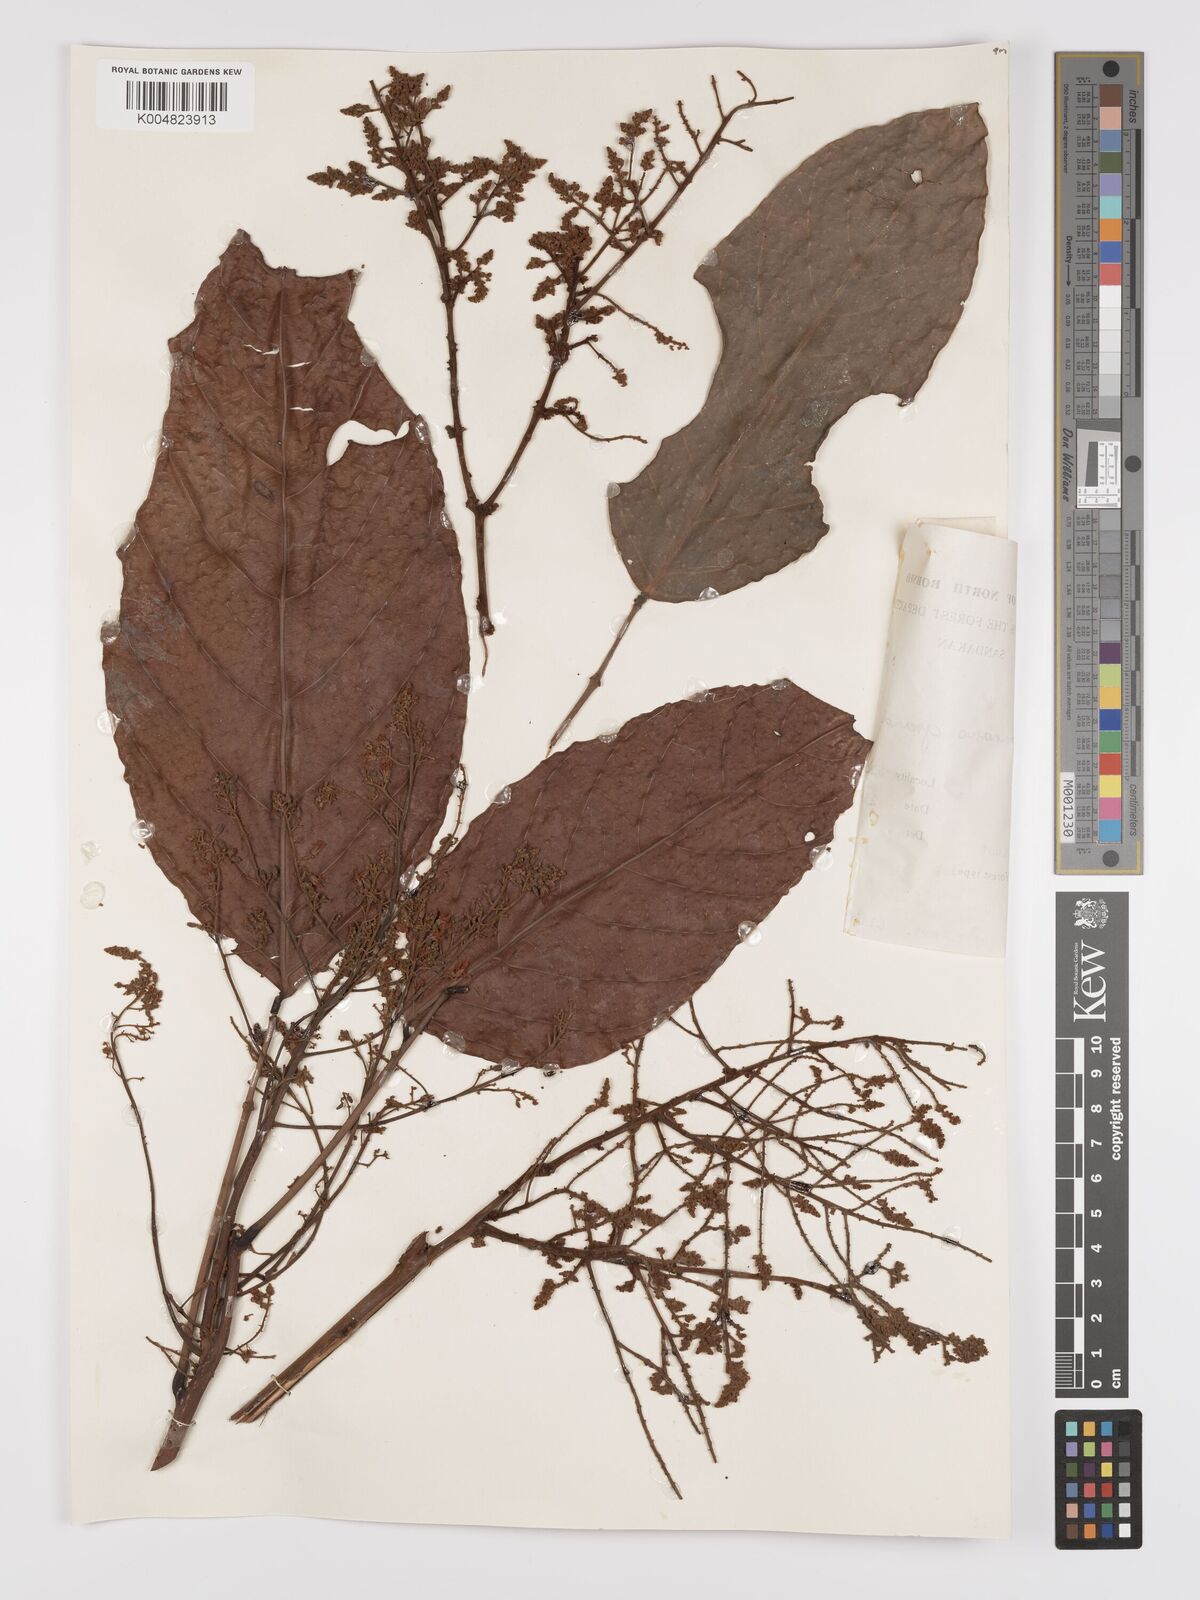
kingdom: Plantae
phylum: Tracheophyta
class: Magnoliopsida
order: Oxalidales
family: Connaraceae
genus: Connarus
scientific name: Connarus grandis
